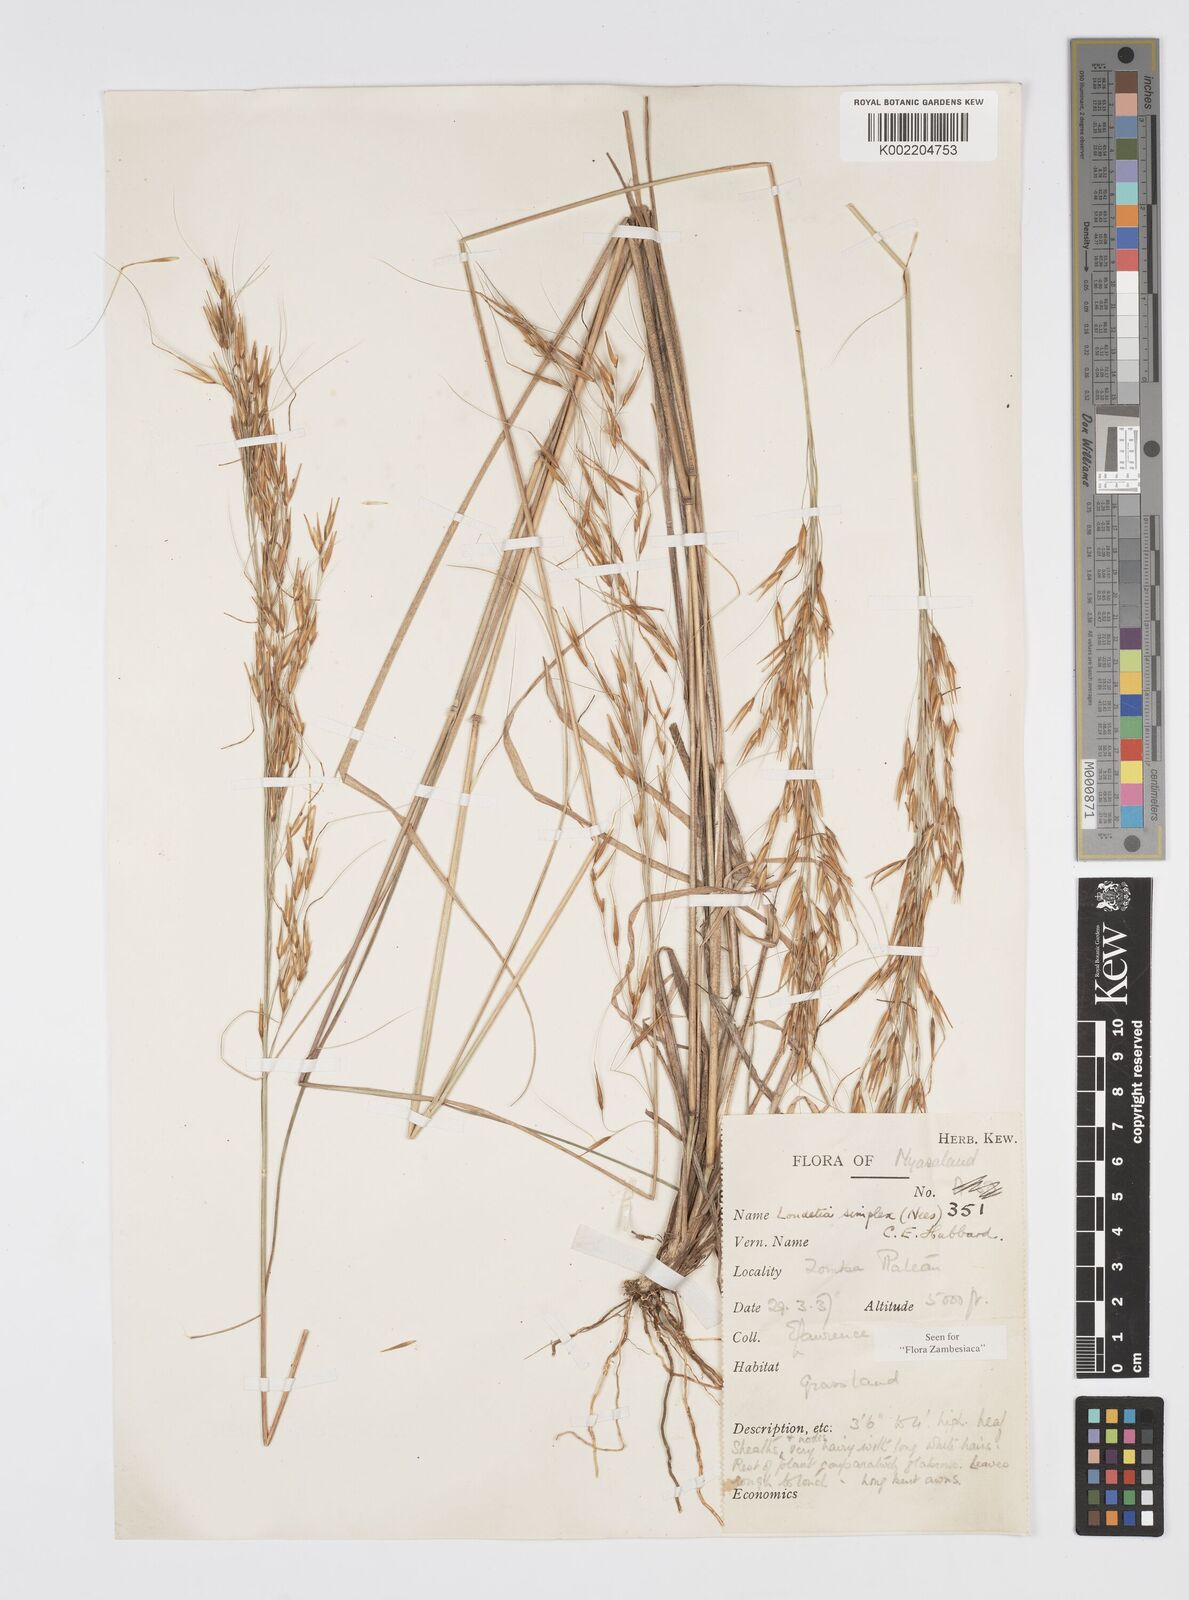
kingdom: Plantae
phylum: Tracheophyta
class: Liliopsida
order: Poales
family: Poaceae
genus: Loudetia
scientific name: Loudetia simplex
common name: Common russet grass
